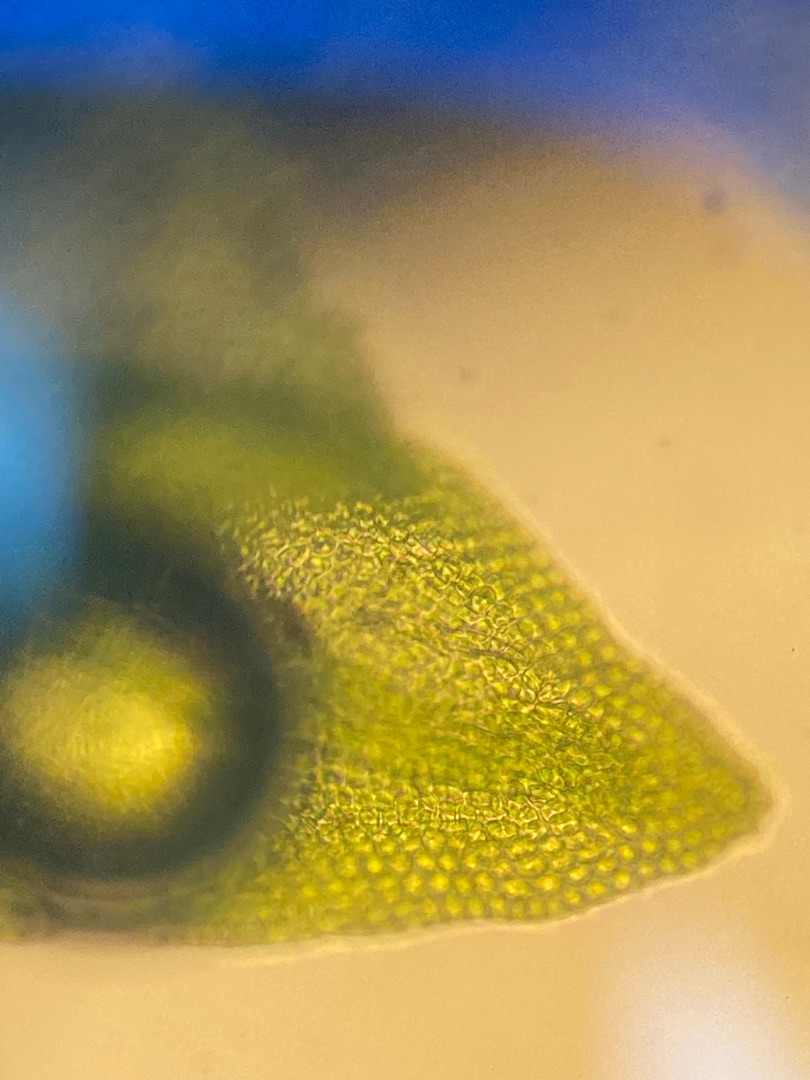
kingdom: Plantae
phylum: Bryophyta
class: Bryopsida
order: Hypnales
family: Leskeaceae
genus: Leskea
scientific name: Leskea polycarpa
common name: Mat lærkemos
